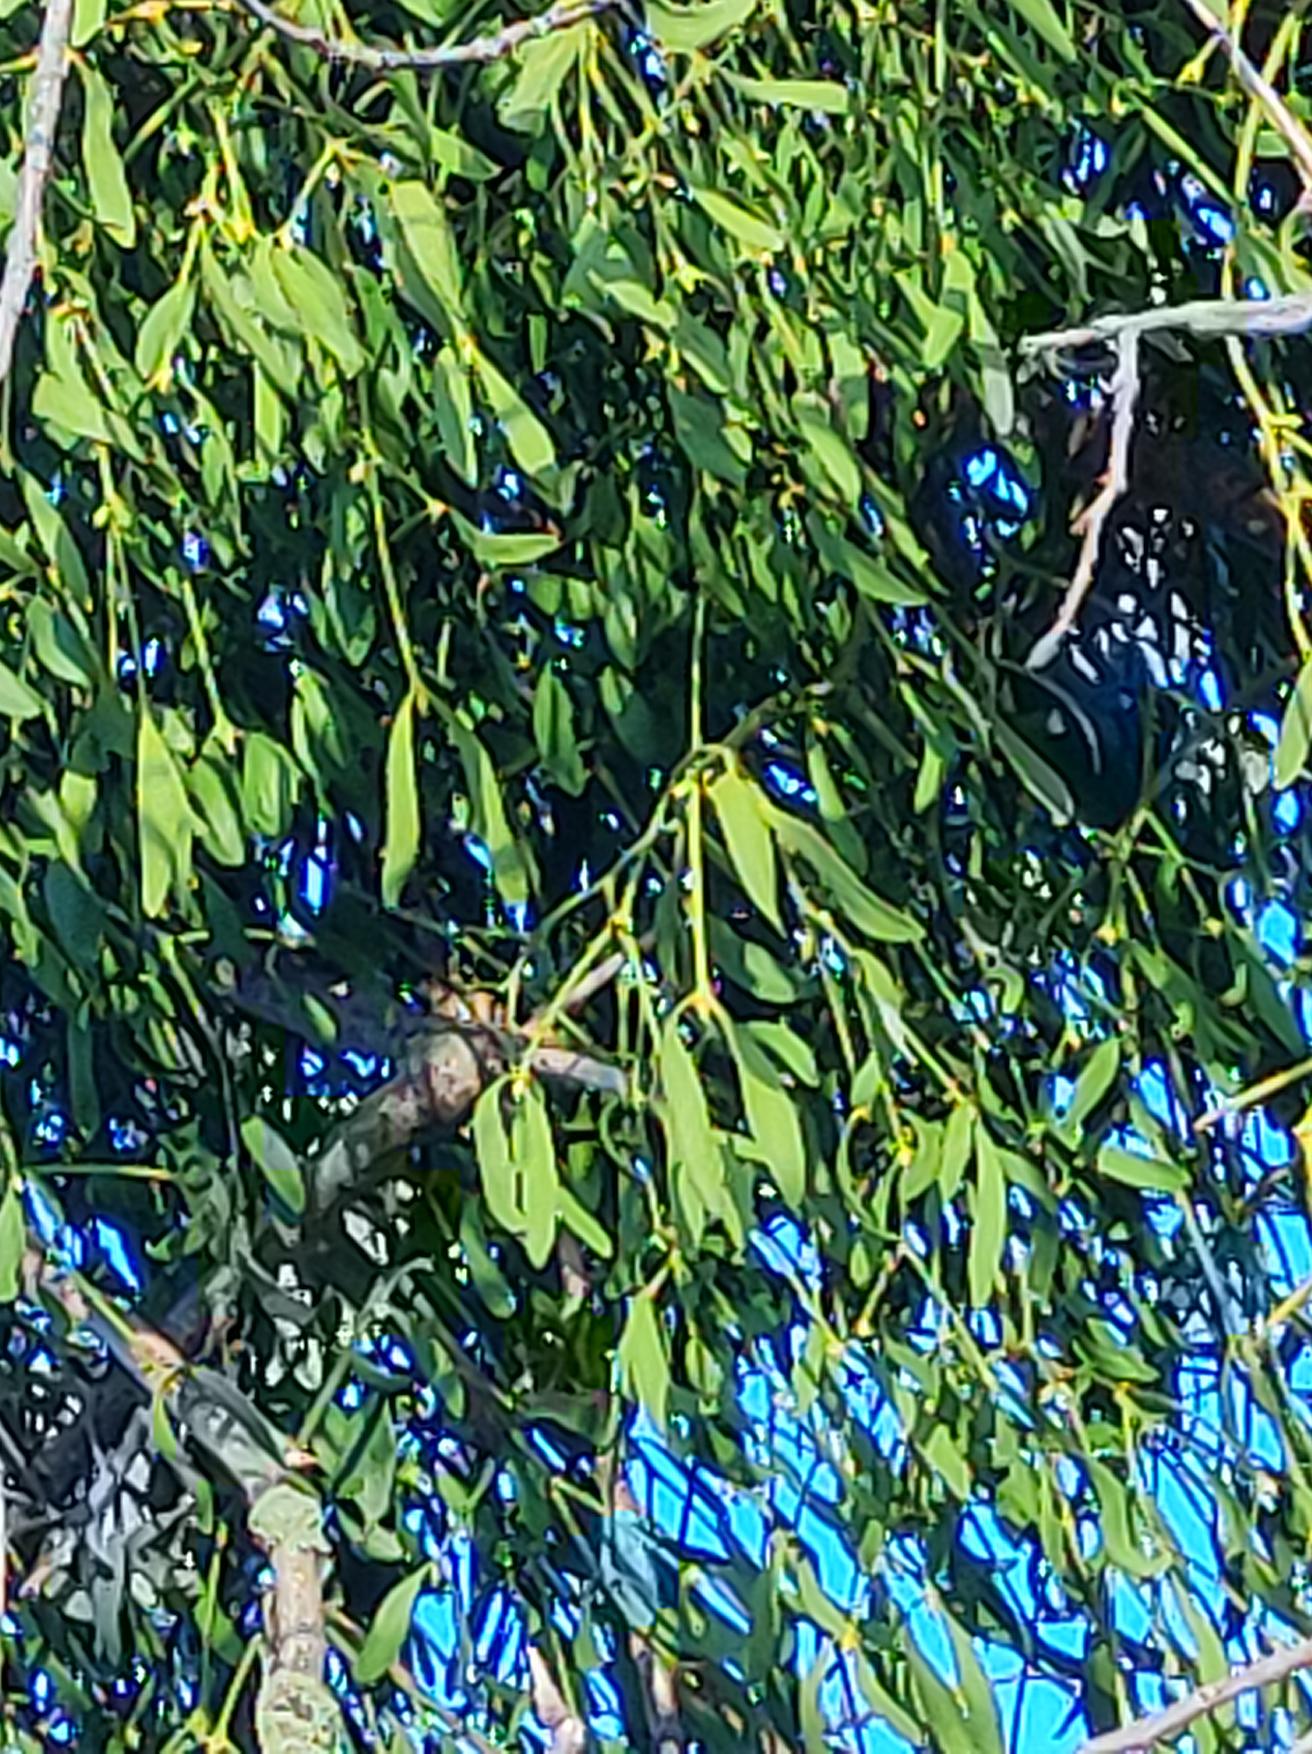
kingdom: Plantae
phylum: Tracheophyta
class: Magnoliopsida
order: Santalales
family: Viscaceae
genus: Viscum
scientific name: Viscum album
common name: Mistelten
